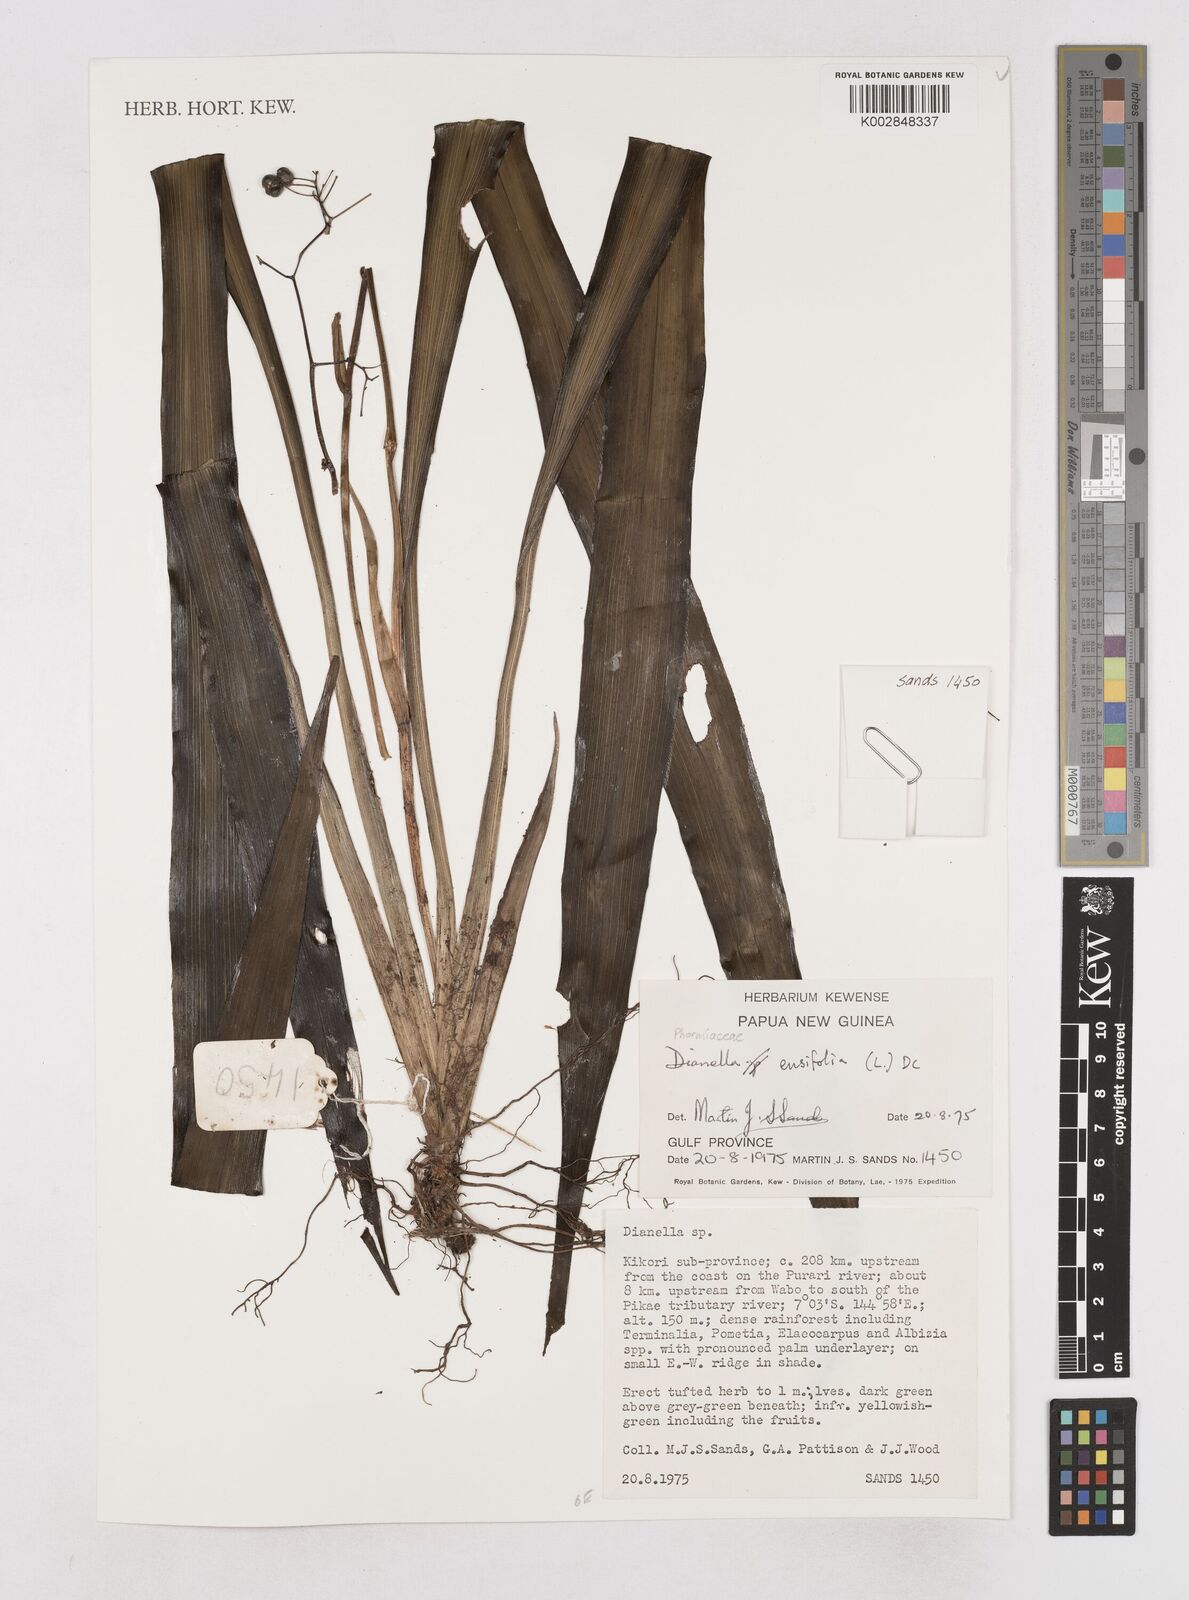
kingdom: Plantae
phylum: Tracheophyta
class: Liliopsida
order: Asparagales
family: Asphodelaceae
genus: Dianella
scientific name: Dianella ensifolia
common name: New zealand lilyplant
